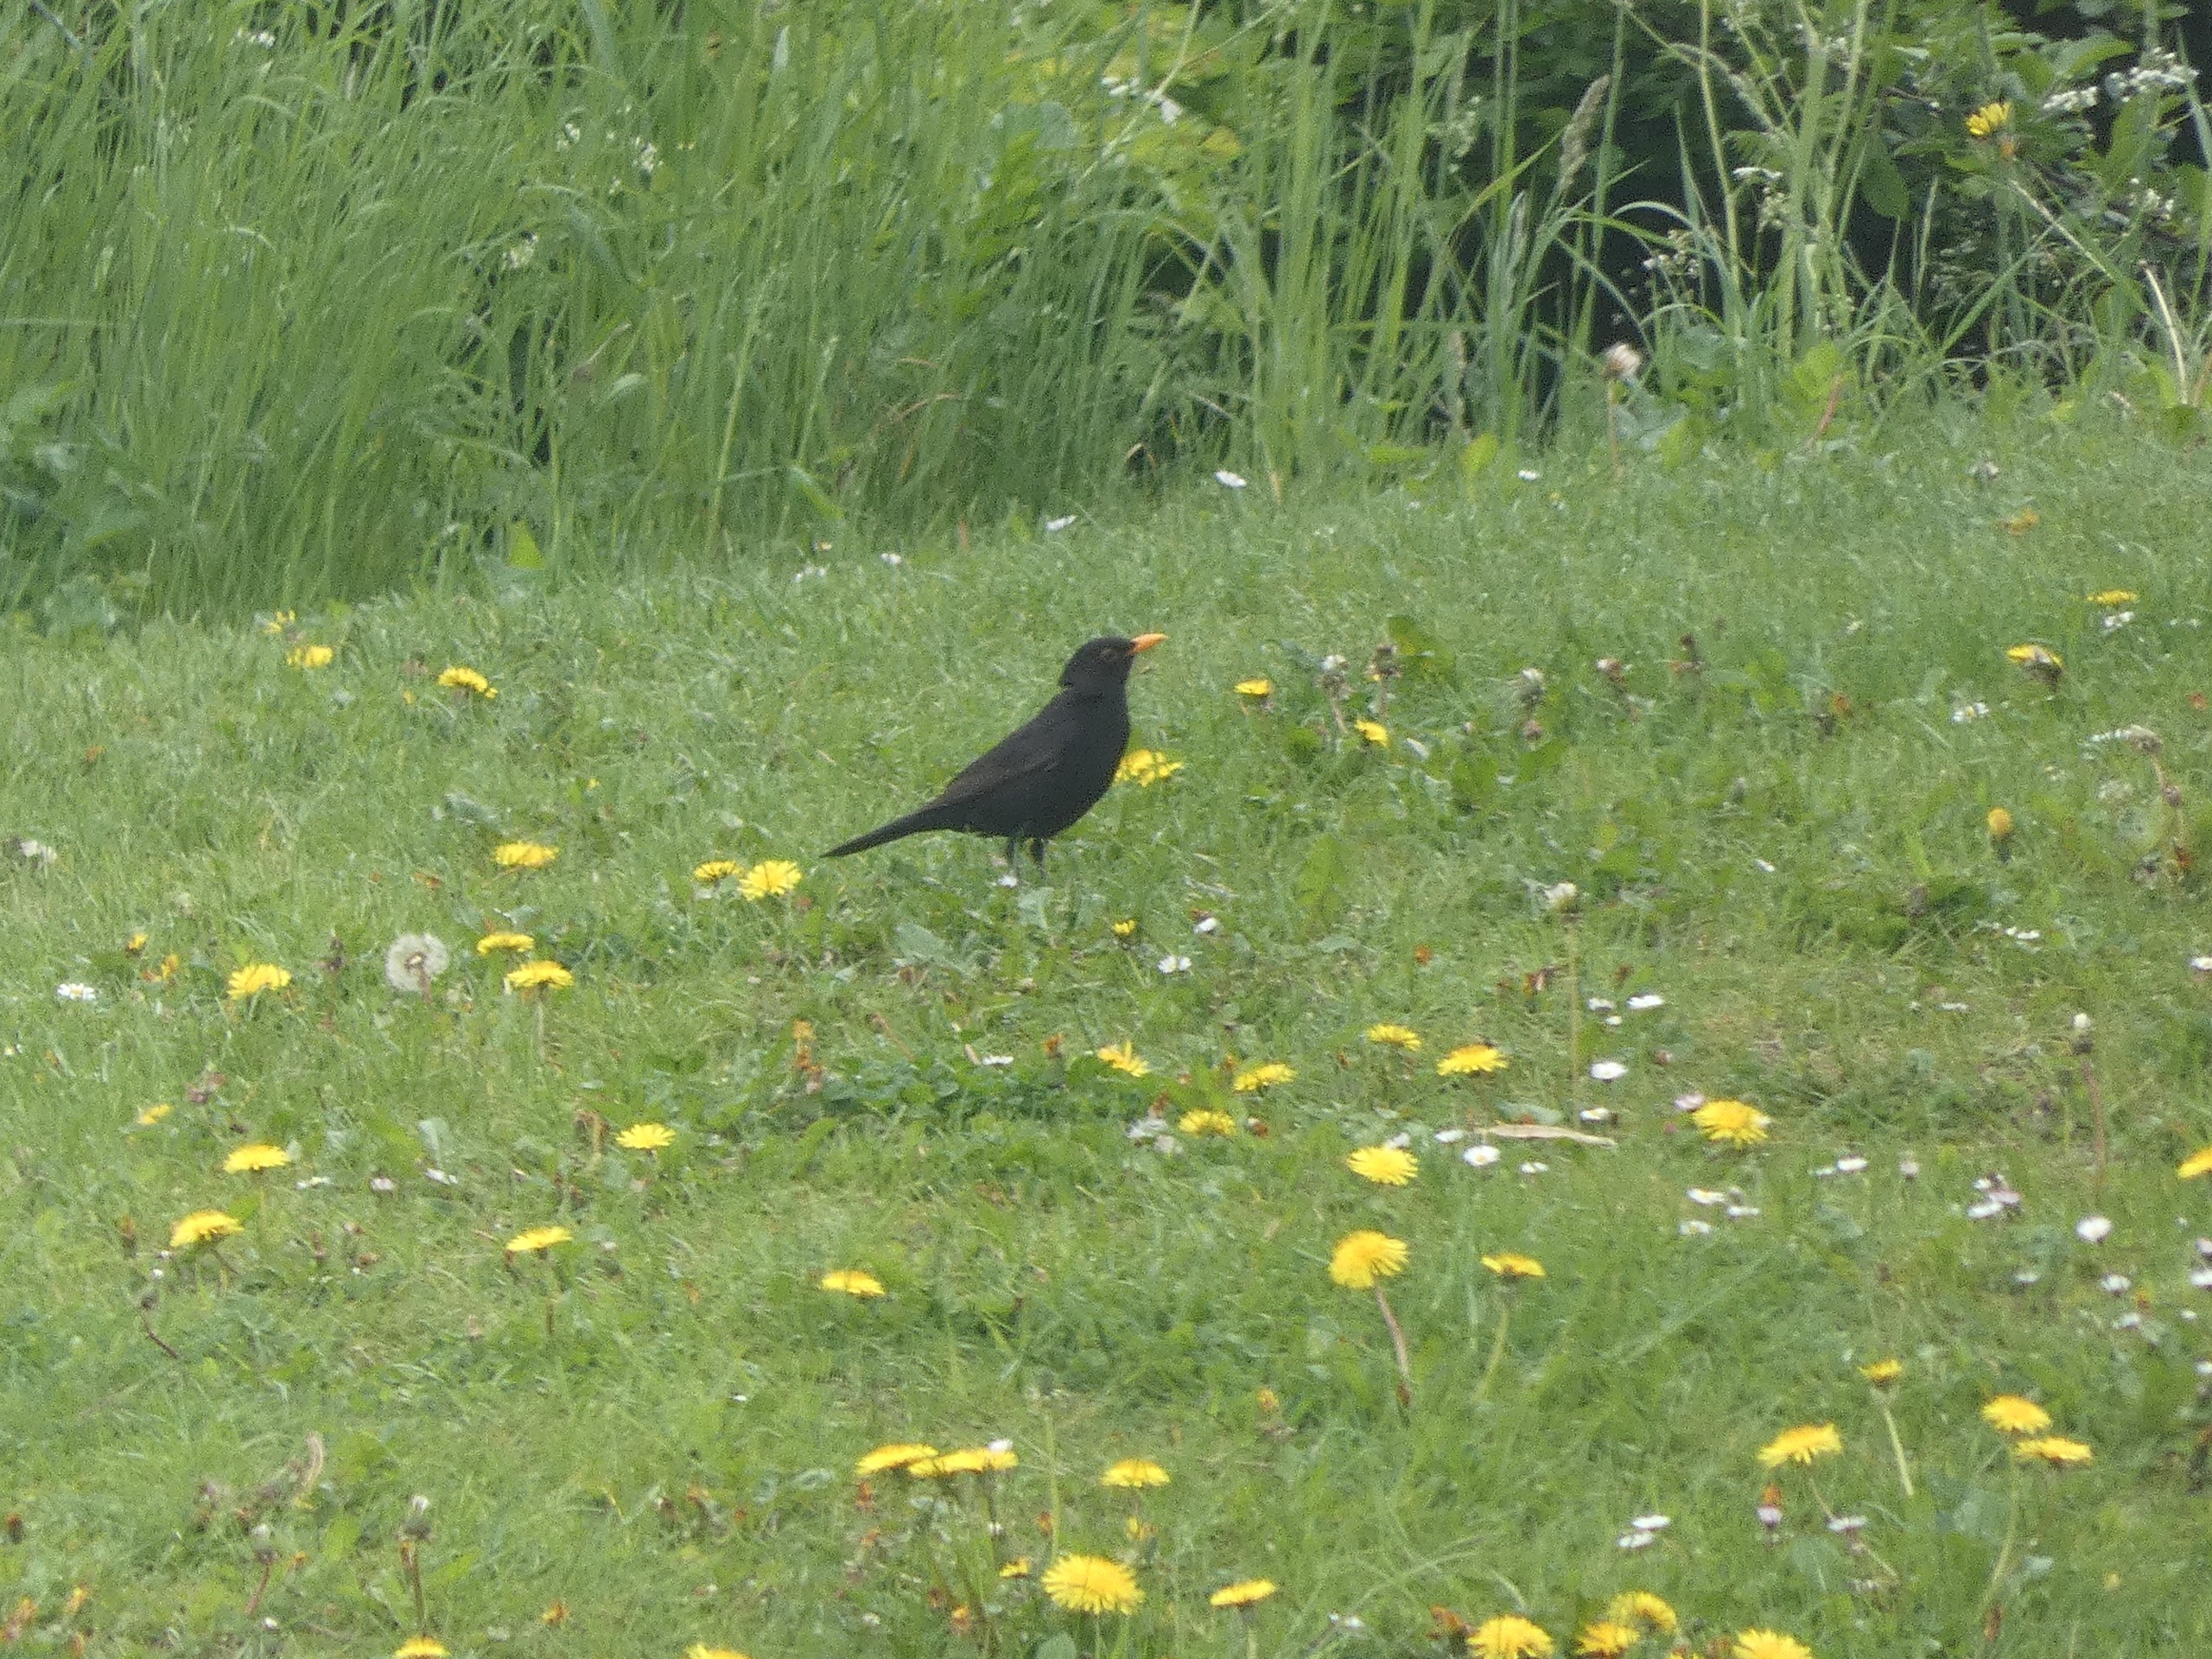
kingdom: Animalia
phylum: Chordata
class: Aves
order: Passeriformes
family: Turdidae
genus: Turdus
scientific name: Turdus merula
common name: Solsort
